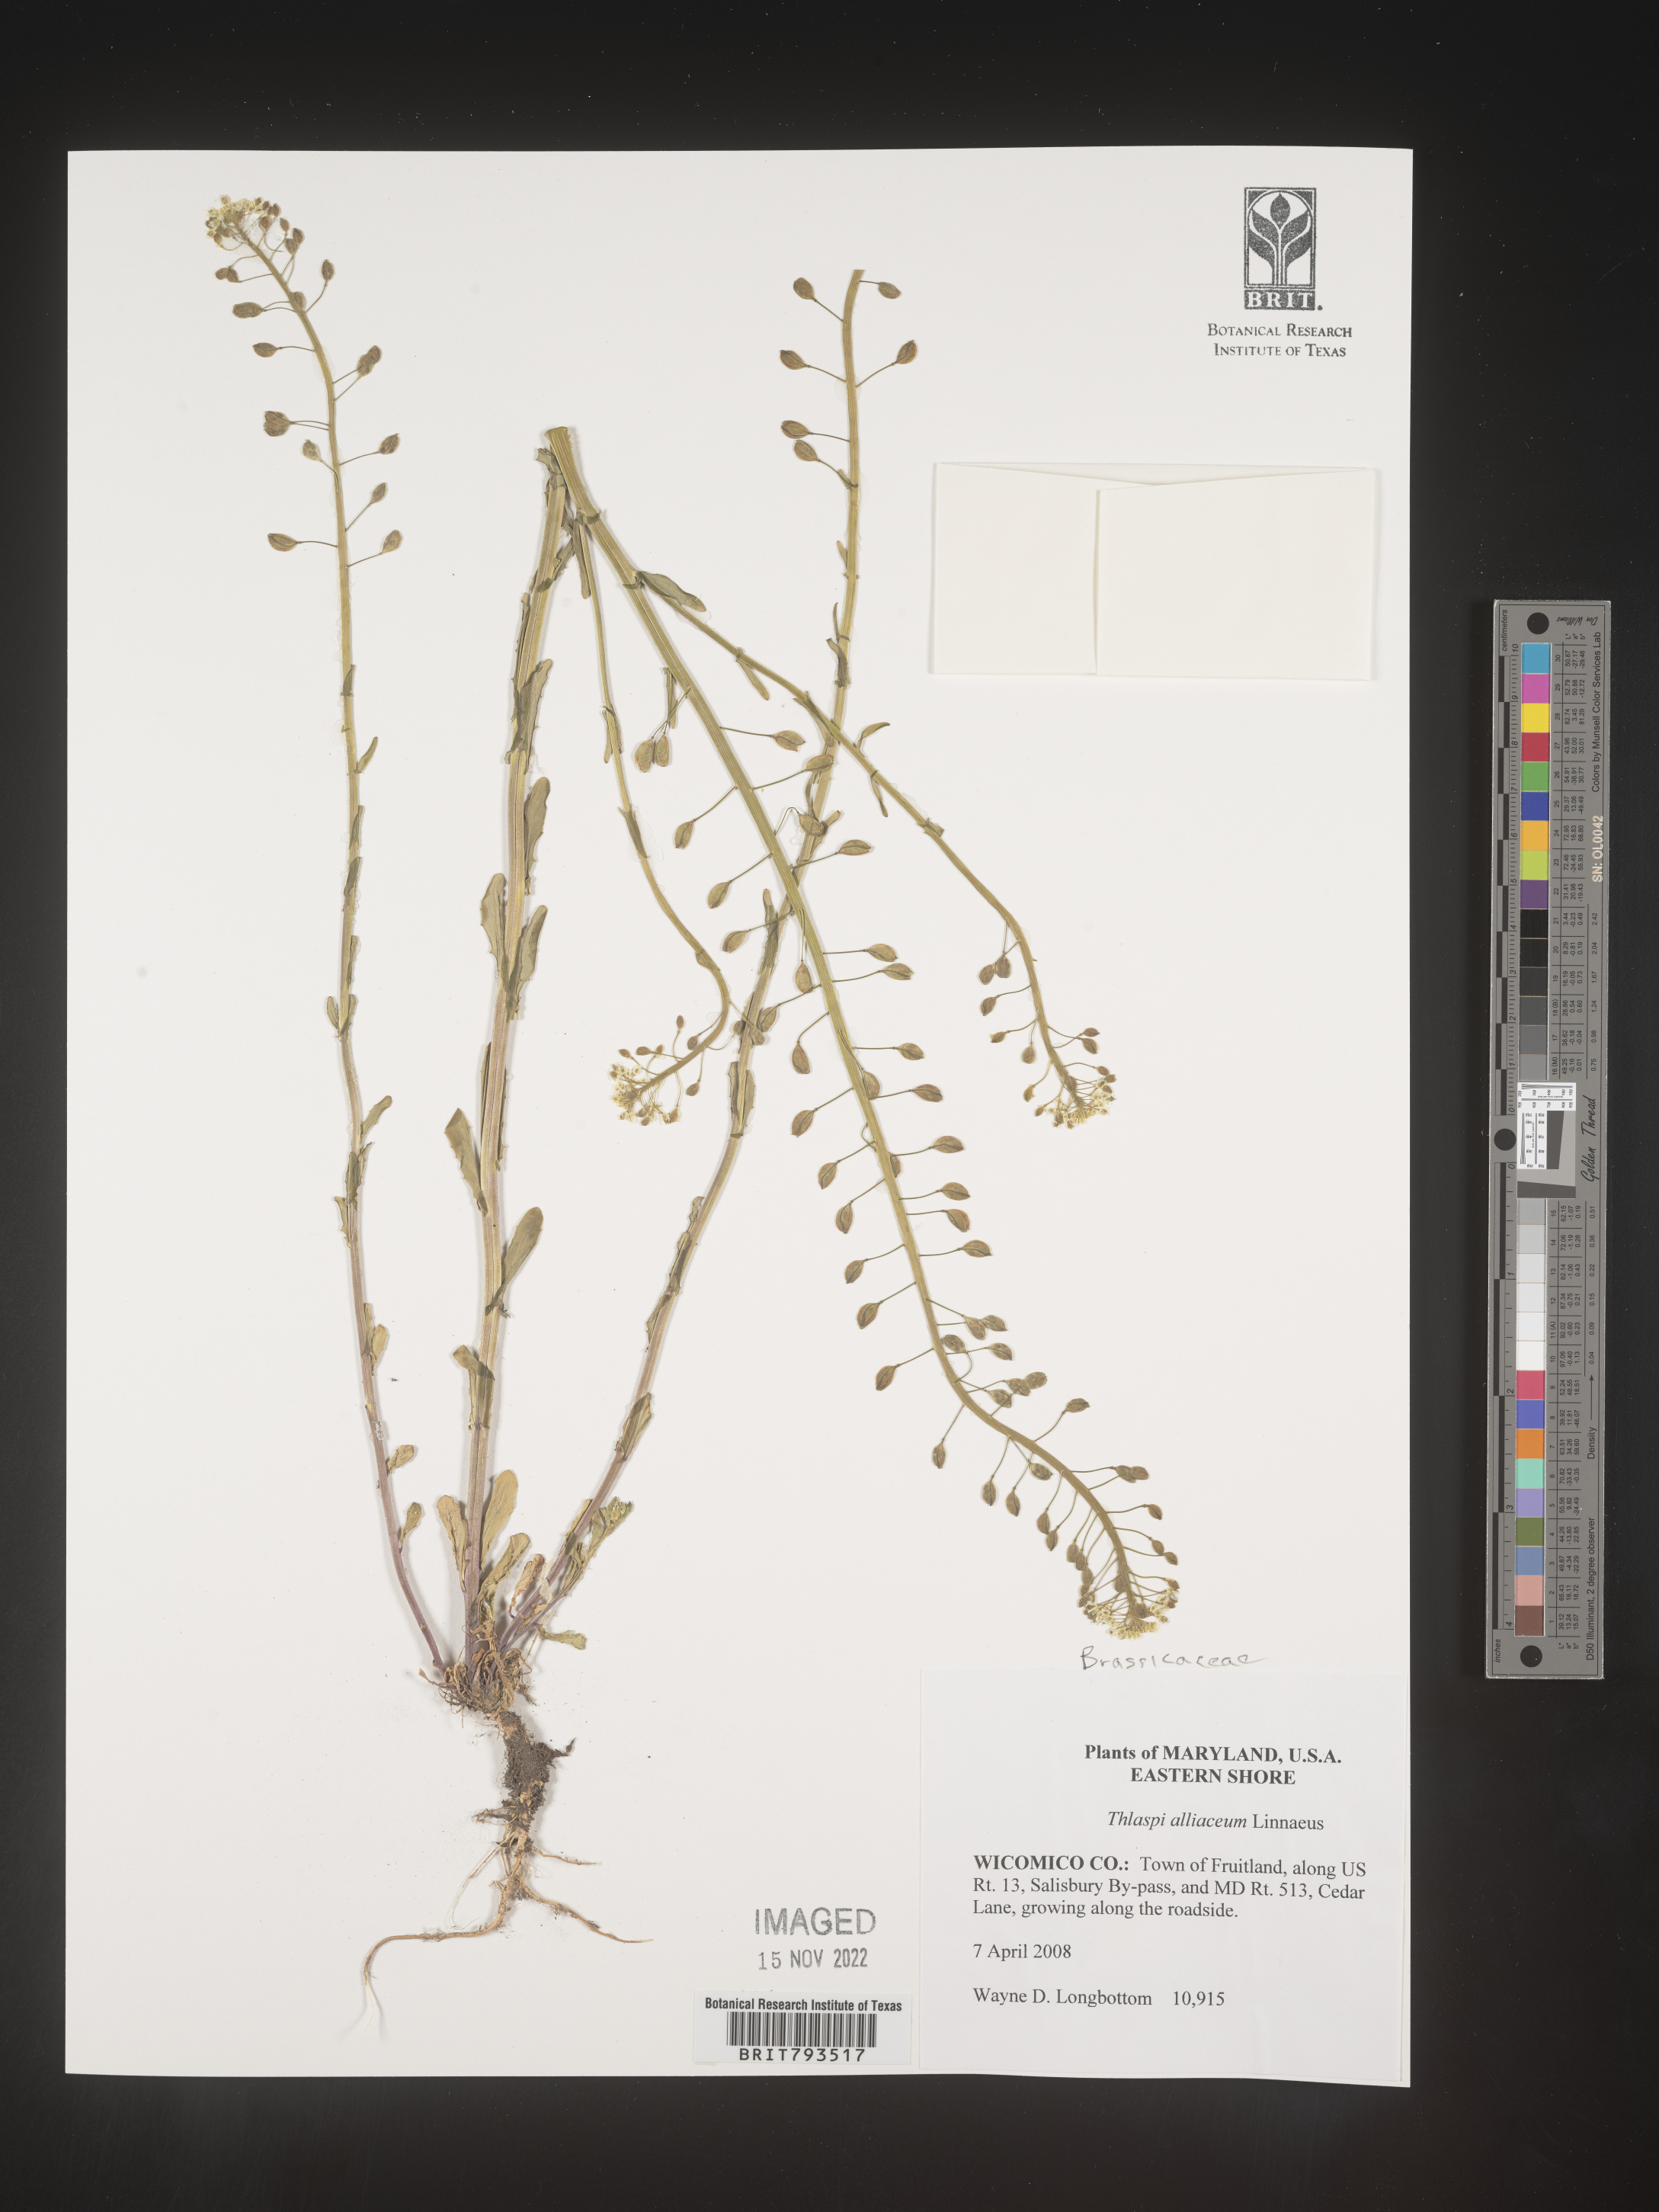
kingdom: Plantae
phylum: Tracheophyta
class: Magnoliopsida
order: Brassicales
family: Brassicaceae
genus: Mummenhoffia
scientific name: Mummenhoffia alliacea
